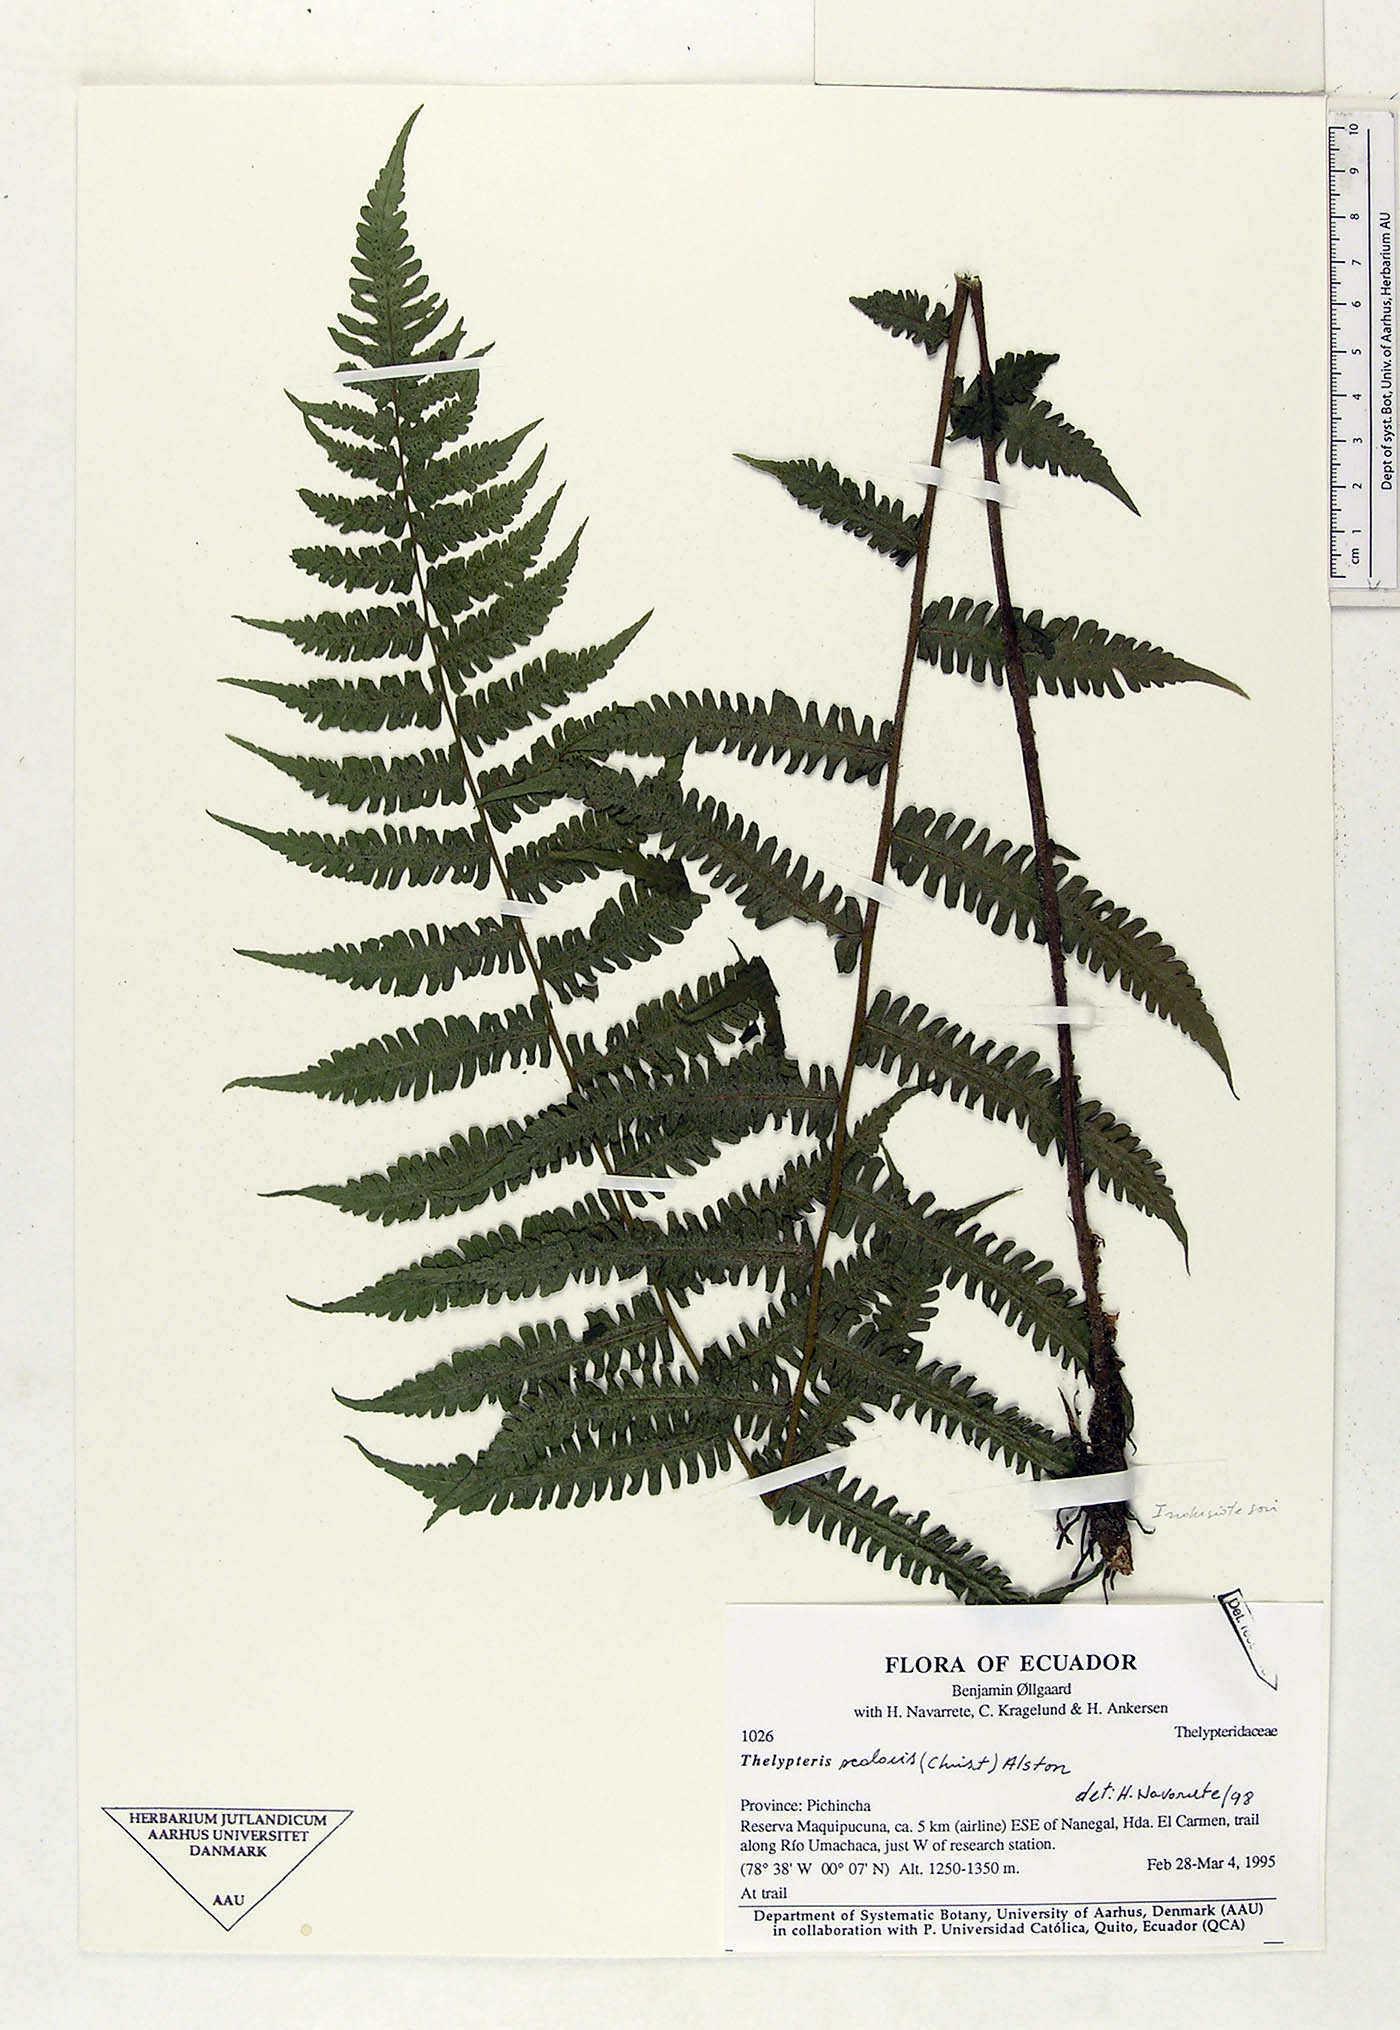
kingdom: Plantae
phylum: Tracheophyta
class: Polypodiopsida
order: Polypodiales
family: Thelypteridaceae
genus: Amauropelta
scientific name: Amauropelta scalaris
